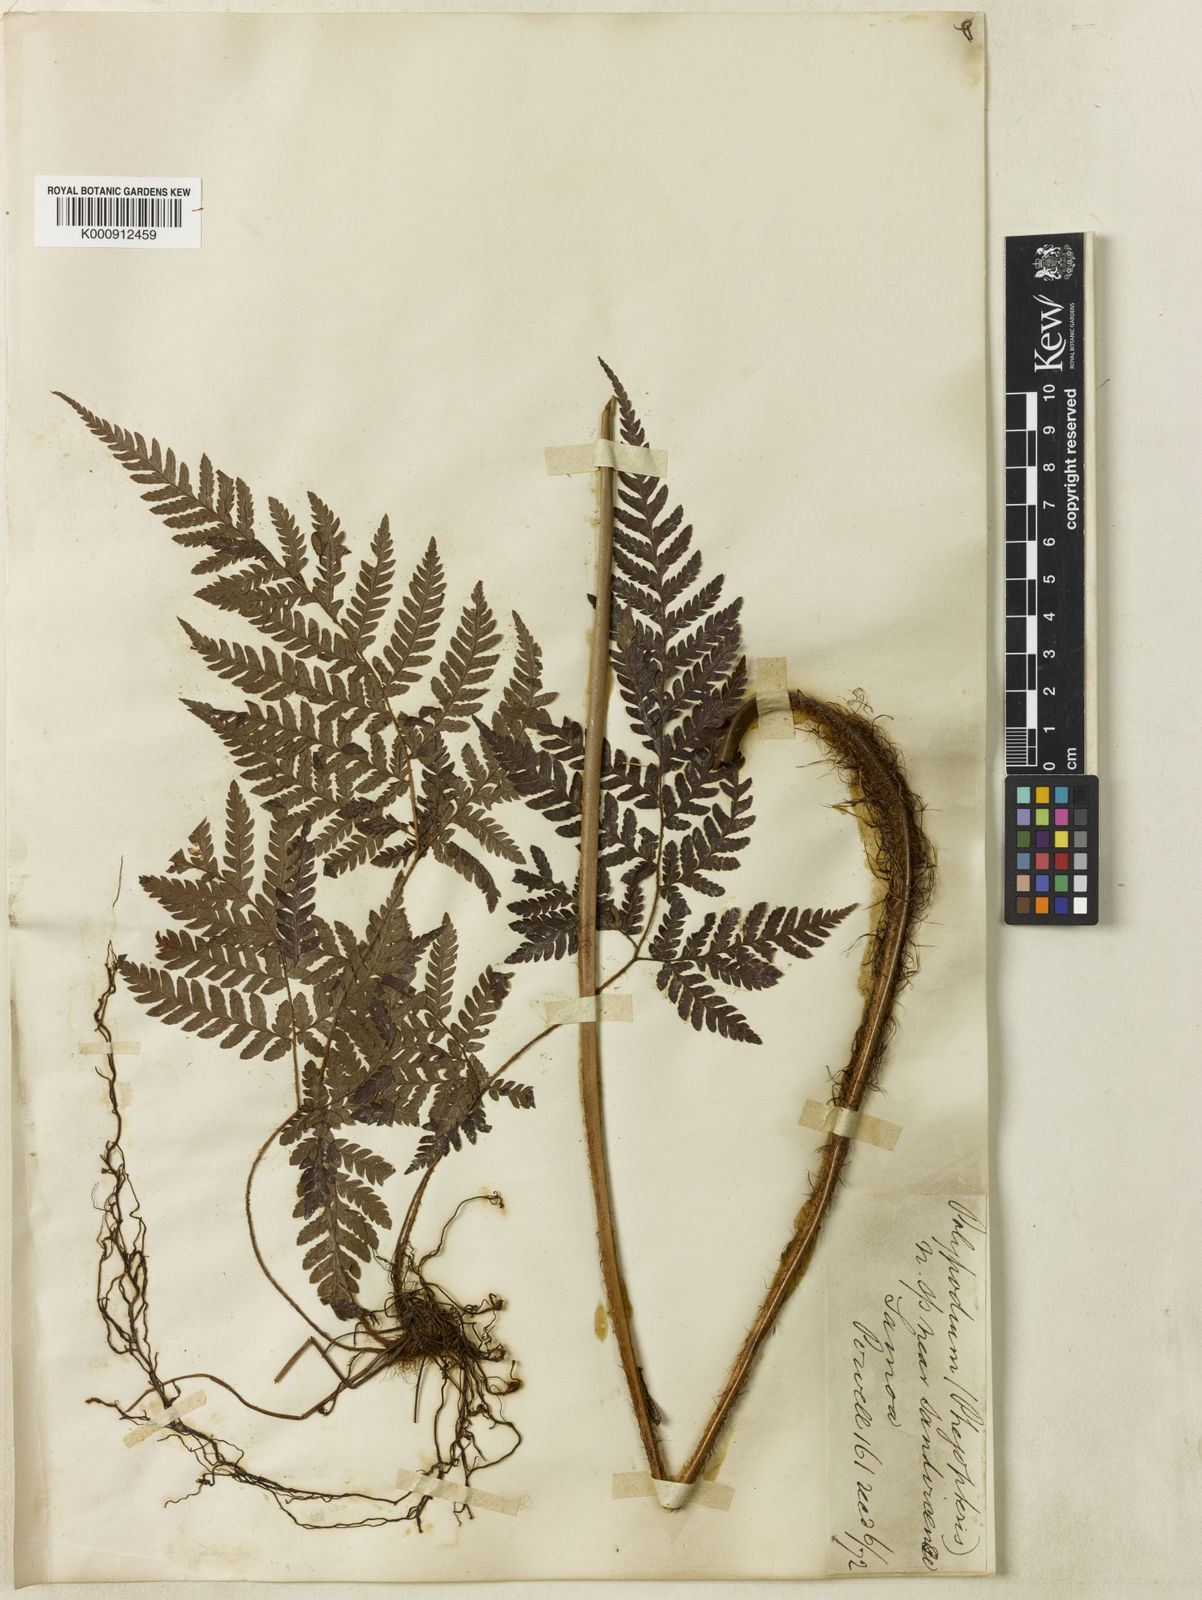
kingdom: Plantae
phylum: Tracheophyta
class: Polypodiopsida
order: Polypodiales
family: Dryopteridaceae
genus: Ctenitis
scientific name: Ctenitis samoensis
